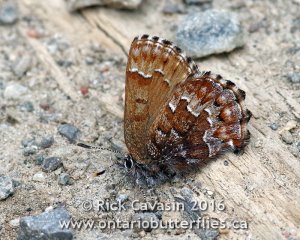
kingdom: Animalia
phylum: Arthropoda
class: Insecta
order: Lepidoptera
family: Lycaenidae
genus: Incisalia
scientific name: Incisalia niphon
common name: Eastern Pine Elfin
